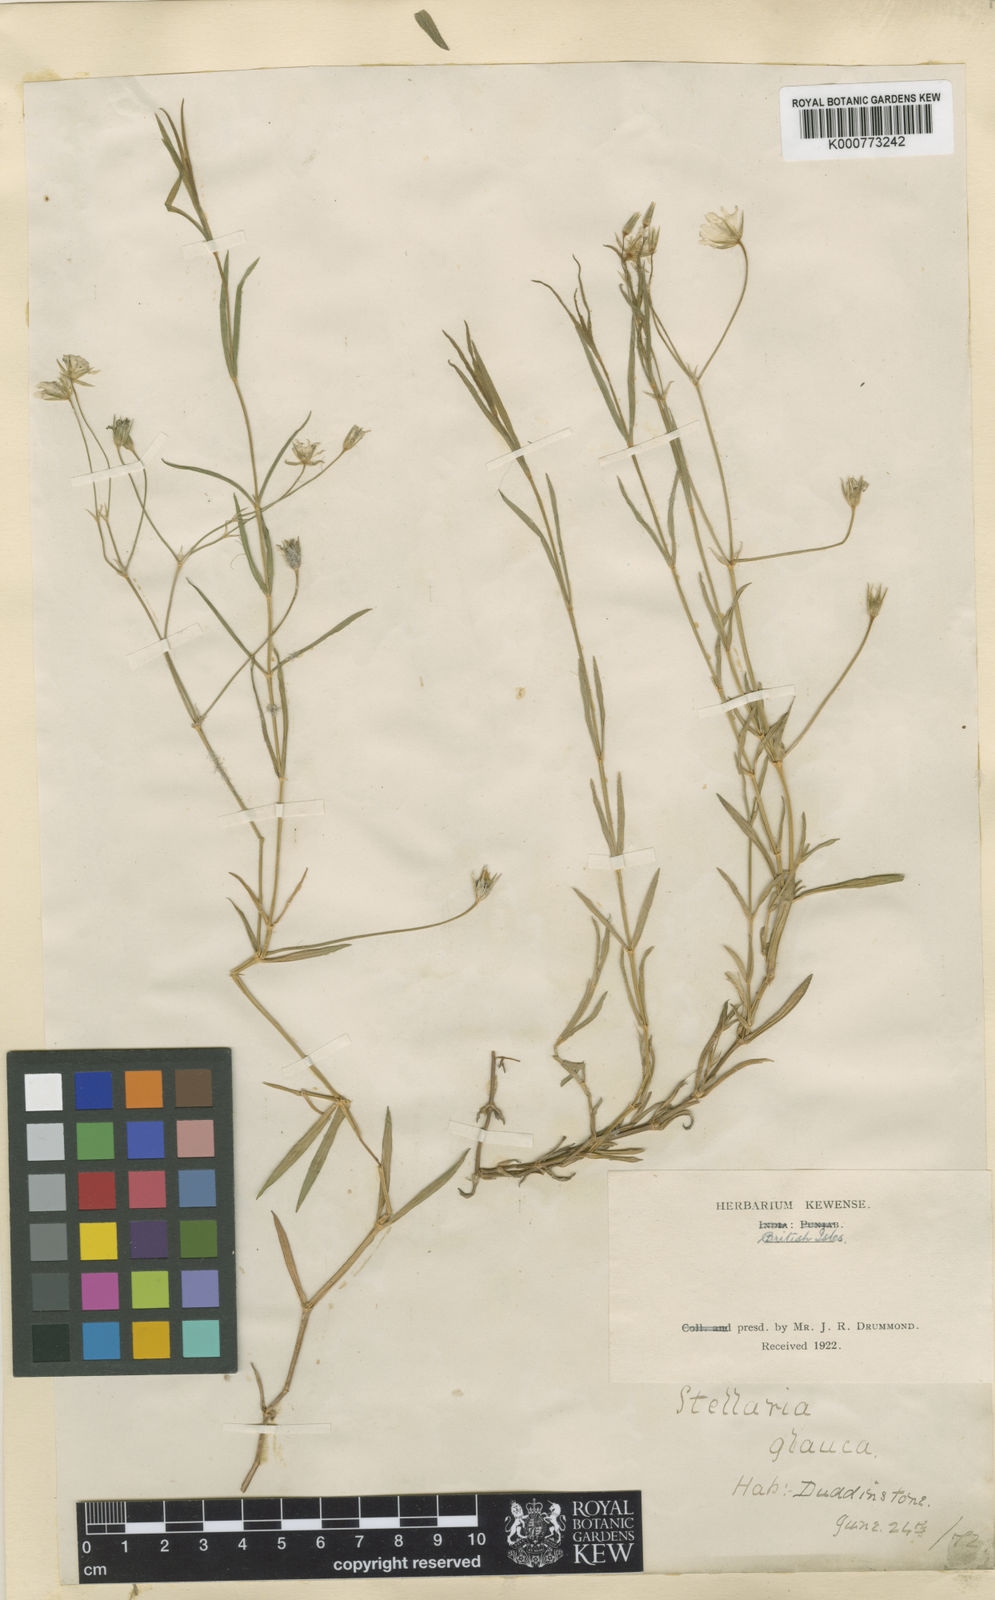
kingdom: Plantae
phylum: Tracheophyta
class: Magnoliopsida
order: Caryophyllales
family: Caryophyllaceae
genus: Stellaria
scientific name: Stellaria
